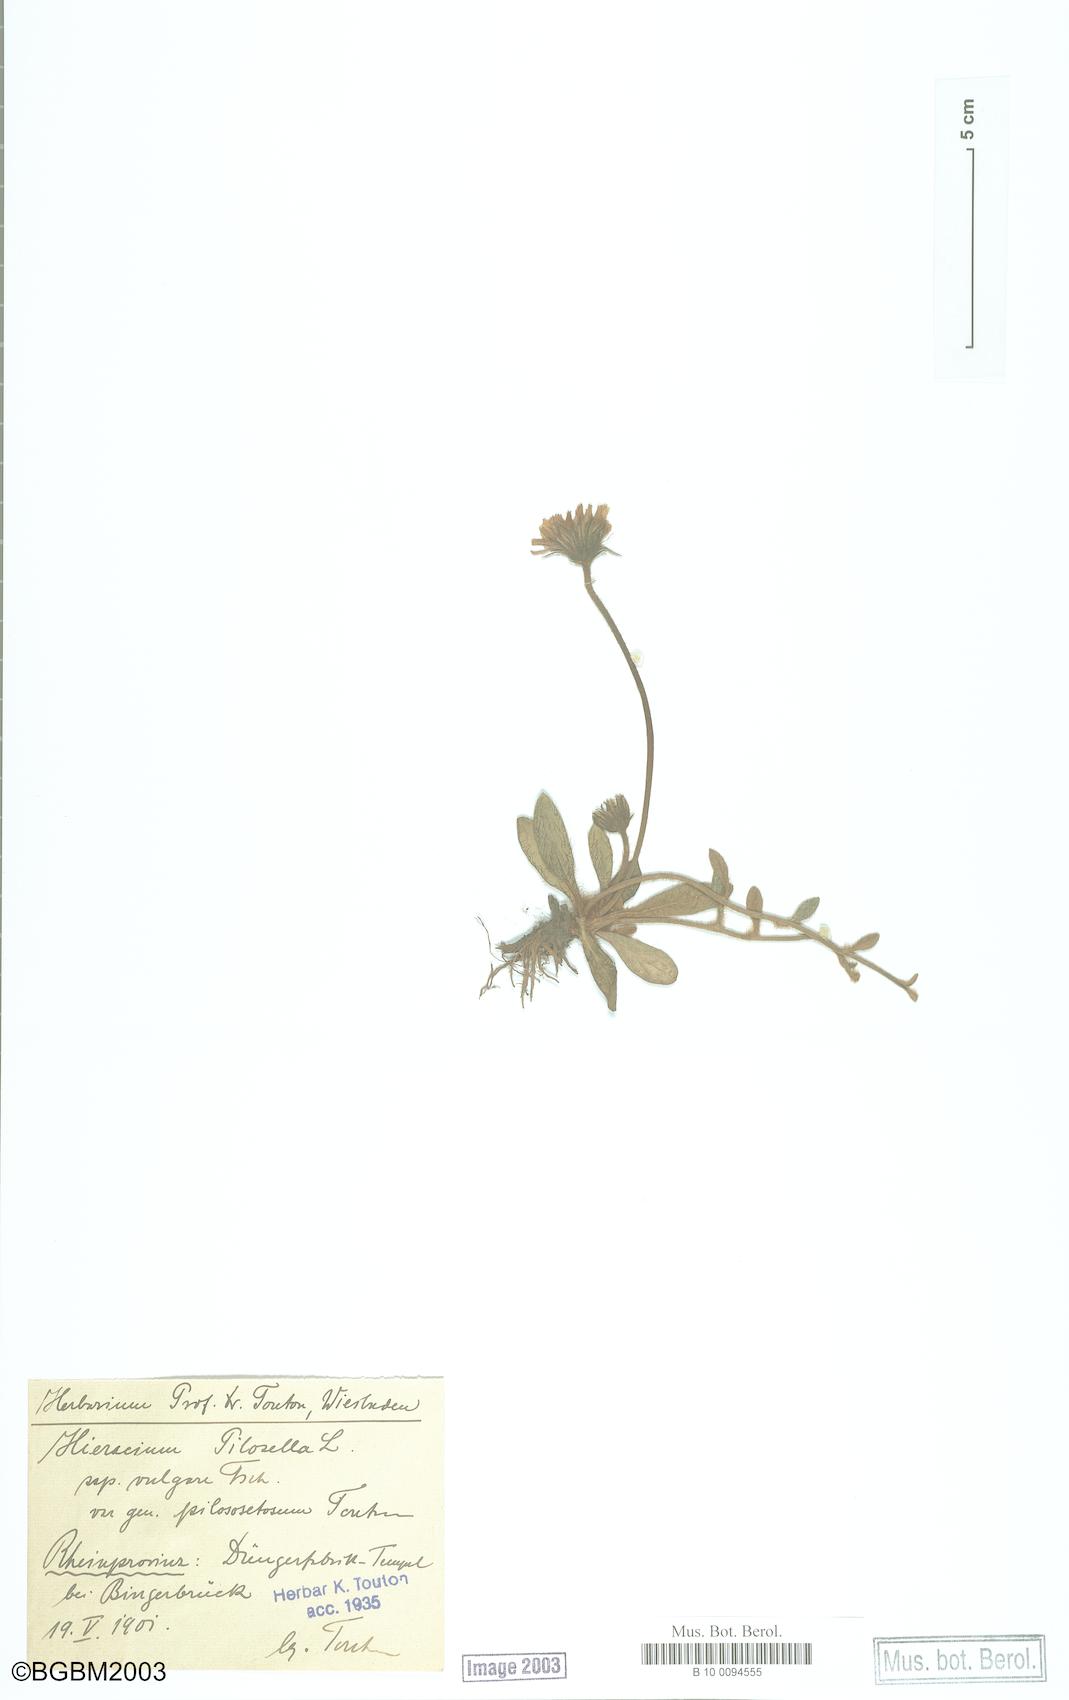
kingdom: Plantae
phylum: Tracheophyta
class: Magnoliopsida
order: Asterales
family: Asteraceae
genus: Pilosella
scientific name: Pilosella officinarum
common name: Mouse-ear hawkweed
